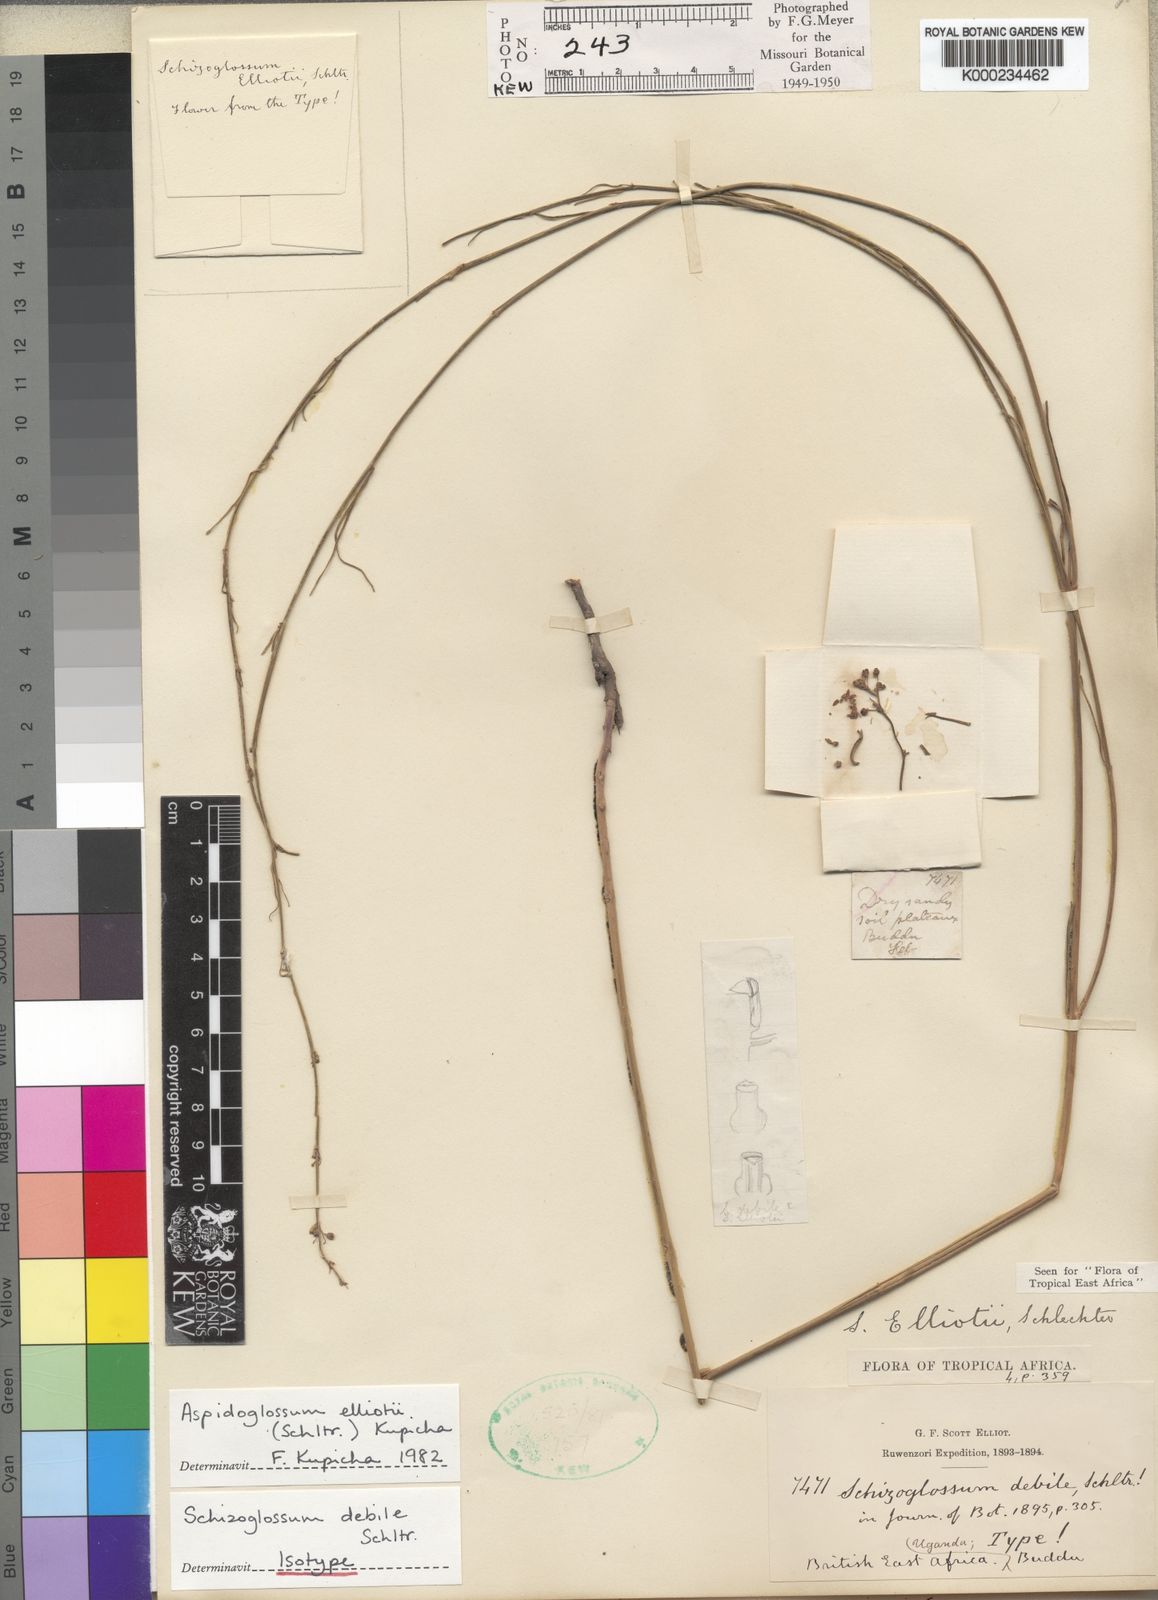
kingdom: Plantae
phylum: Tracheophyta
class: Magnoliopsida
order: Gentianales
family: Apocynaceae
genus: Aspidoglossum
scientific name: Aspidoglossum elliotii
